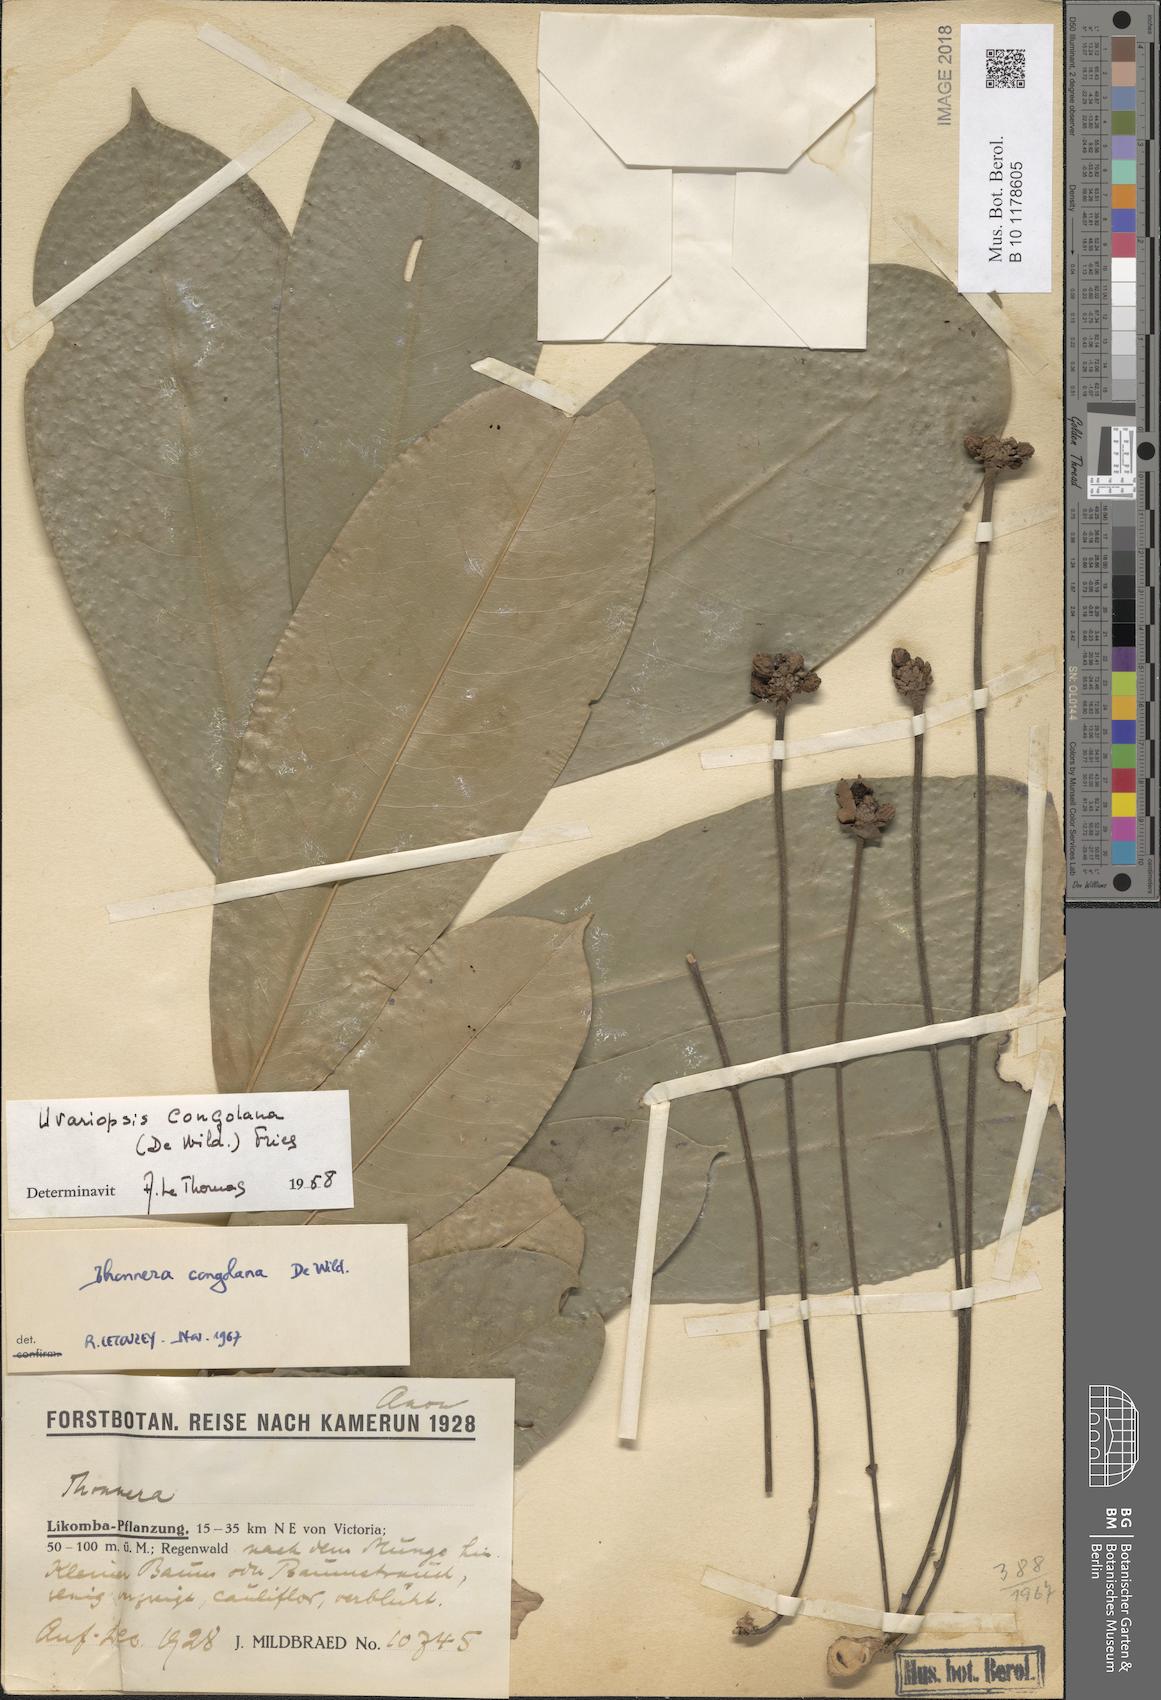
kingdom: Plantae
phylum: Tracheophyta
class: Magnoliopsida
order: Magnoliales
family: Annonaceae
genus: Uvariopsis
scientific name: Uvariopsis dioica
